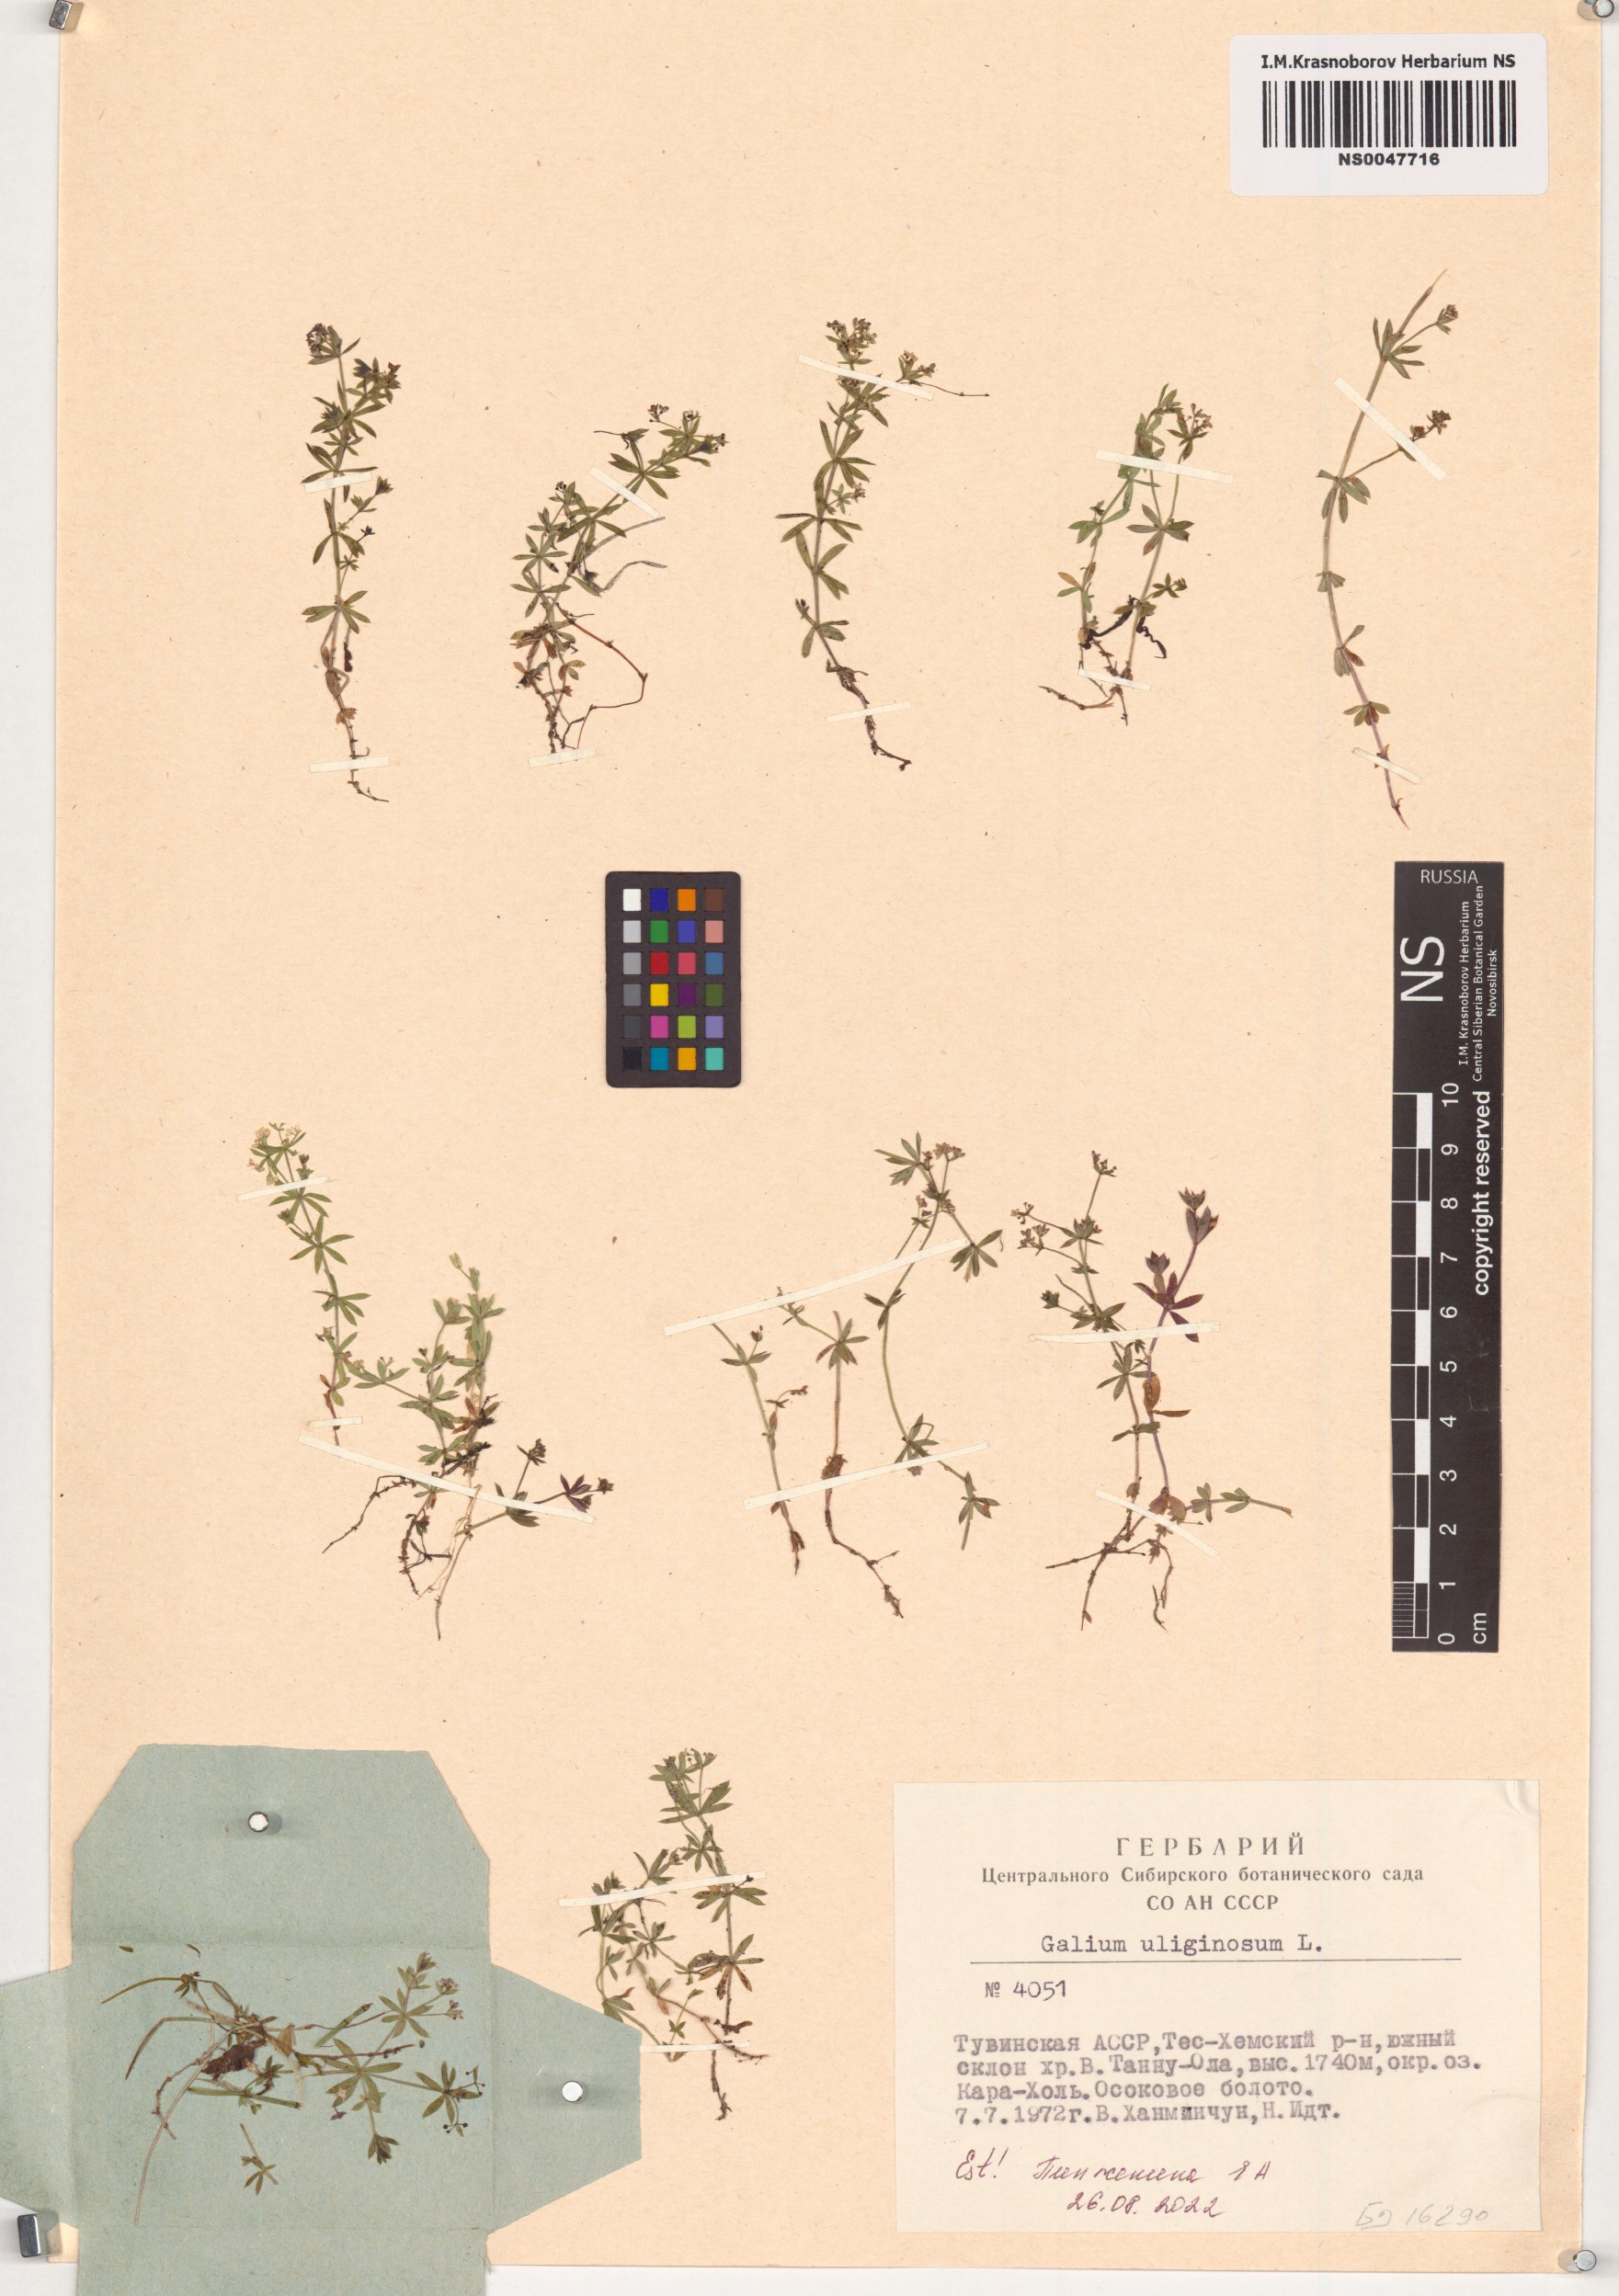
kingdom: Plantae
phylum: Tracheophyta
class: Magnoliopsida
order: Gentianales
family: Rubiaceae
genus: Galium
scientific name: Galium uliginosum
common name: Fen bedstraw
